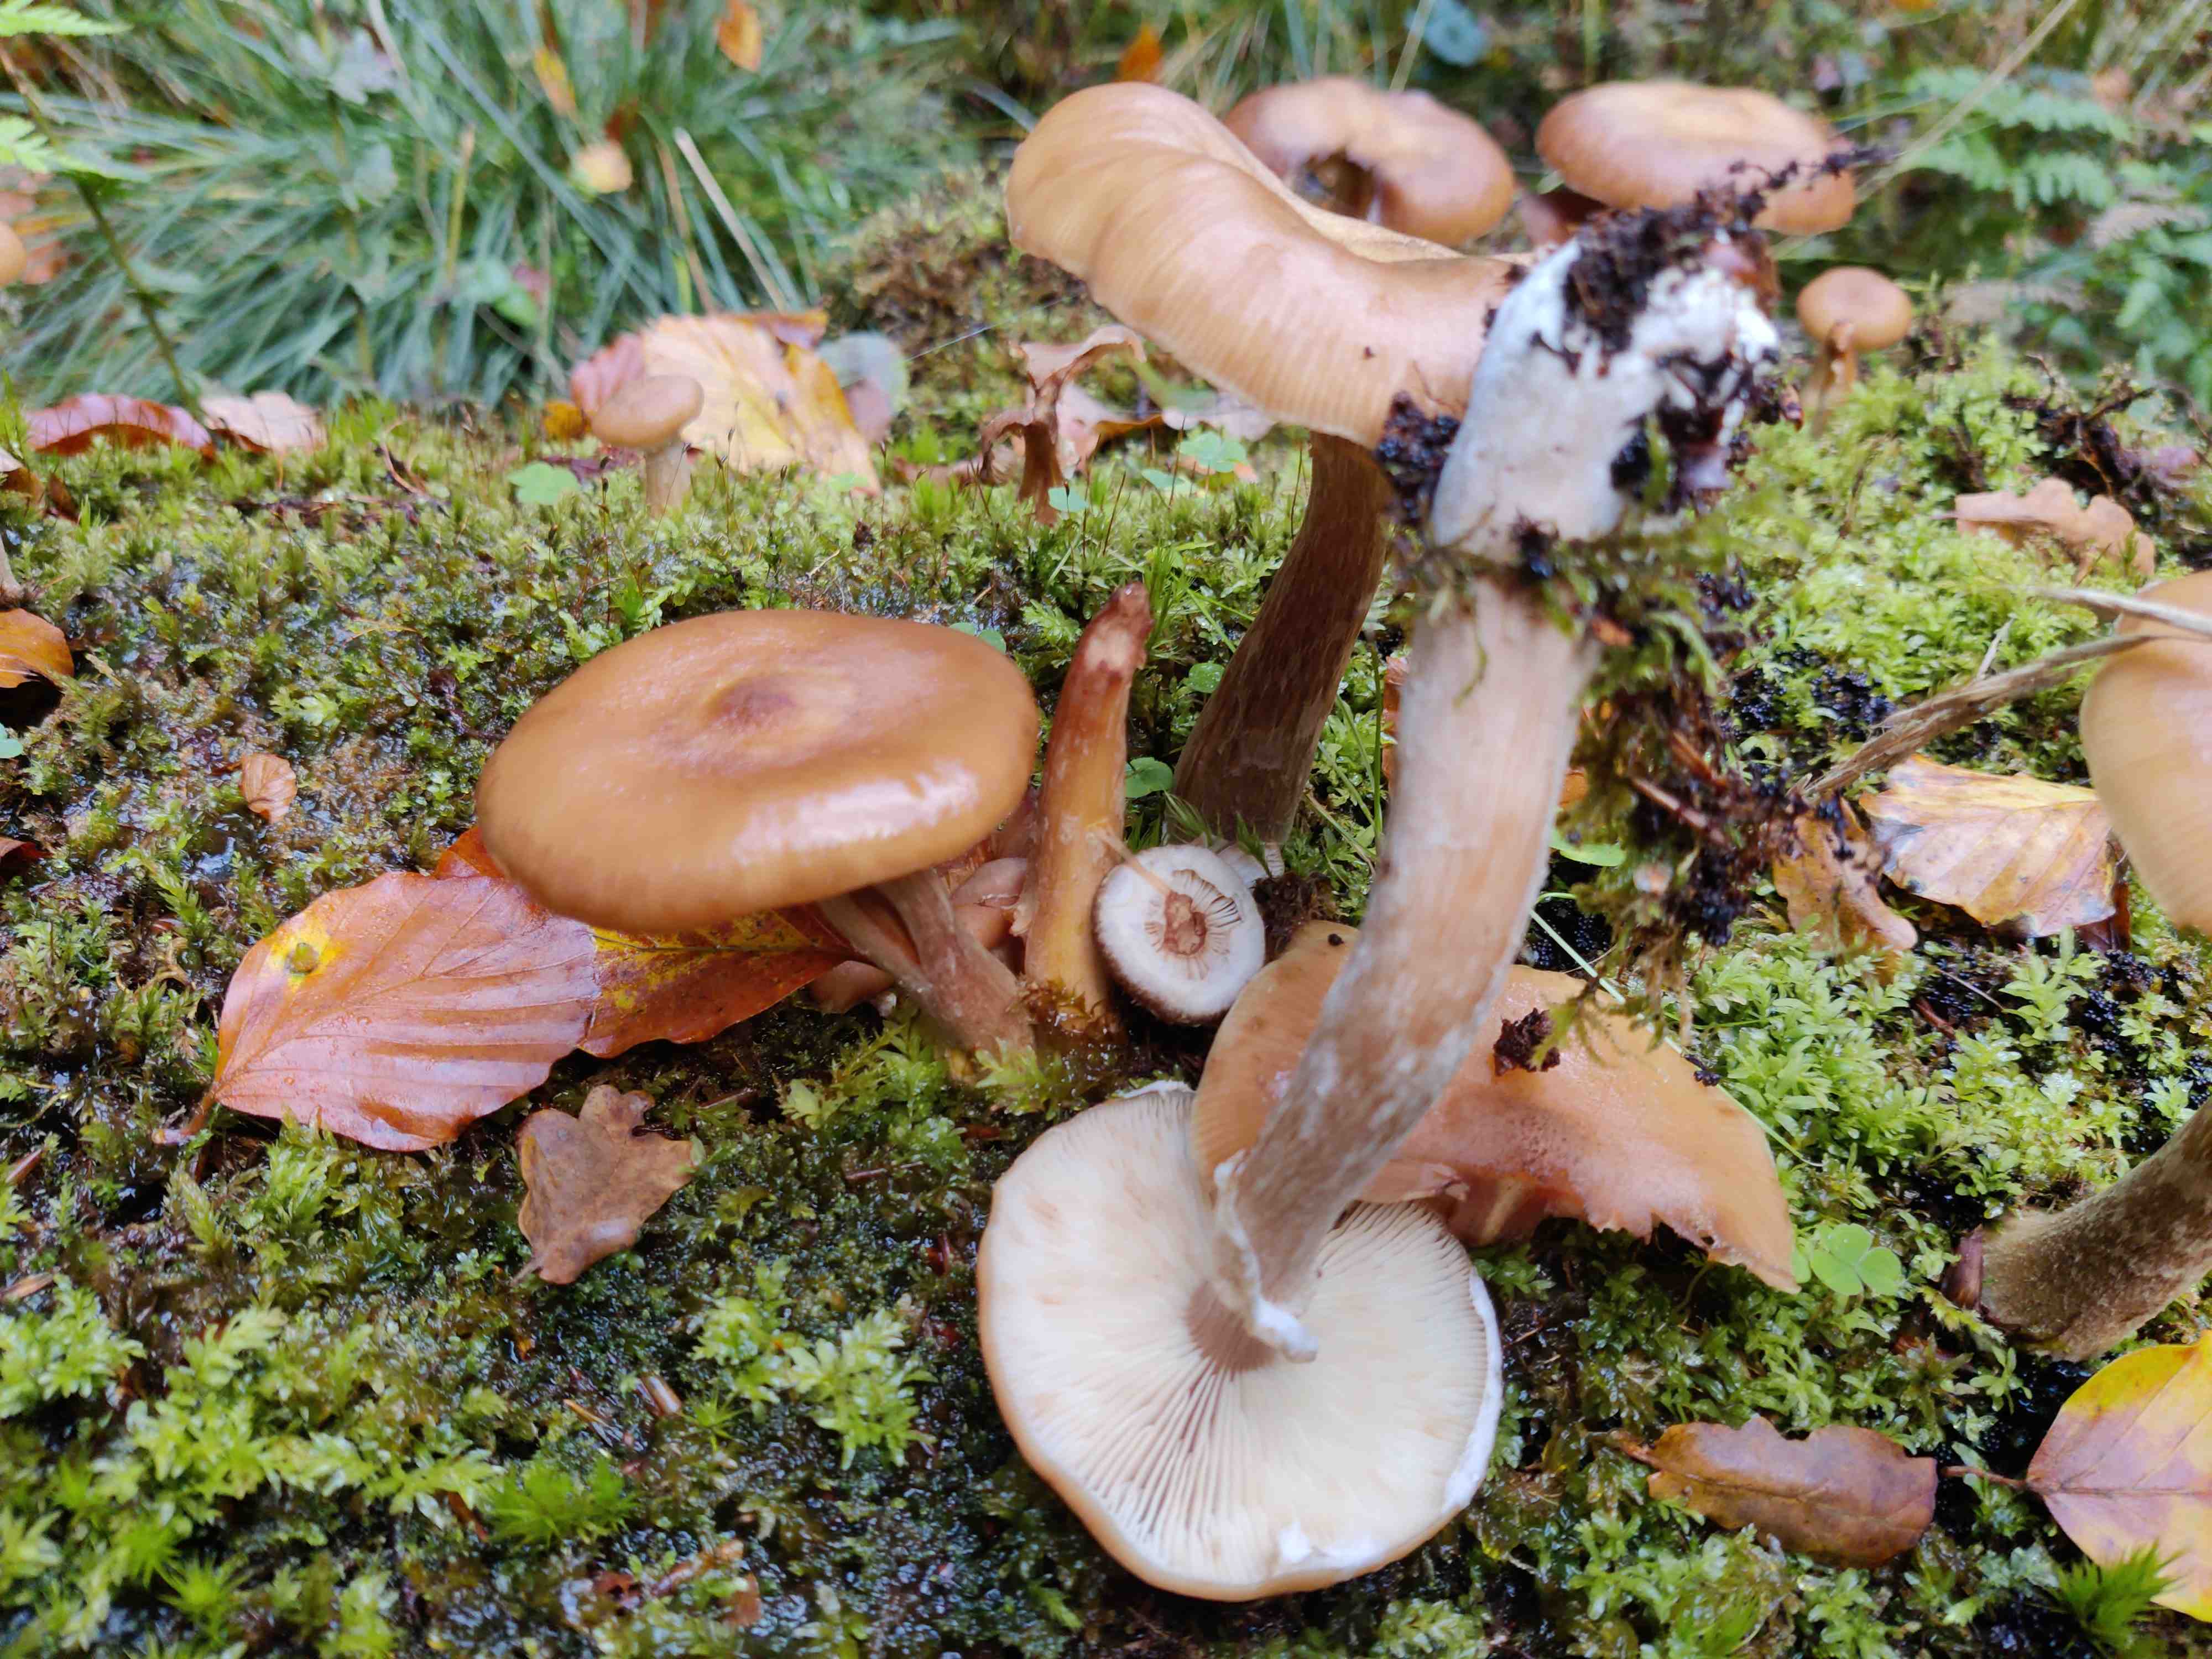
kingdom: Fungi
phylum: Basidiomycota
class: Agaricomycetes
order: Agaricales
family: Physalacriaceae
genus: Armillaria
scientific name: Armillaria lutea
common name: køllestokket honningsvamp
